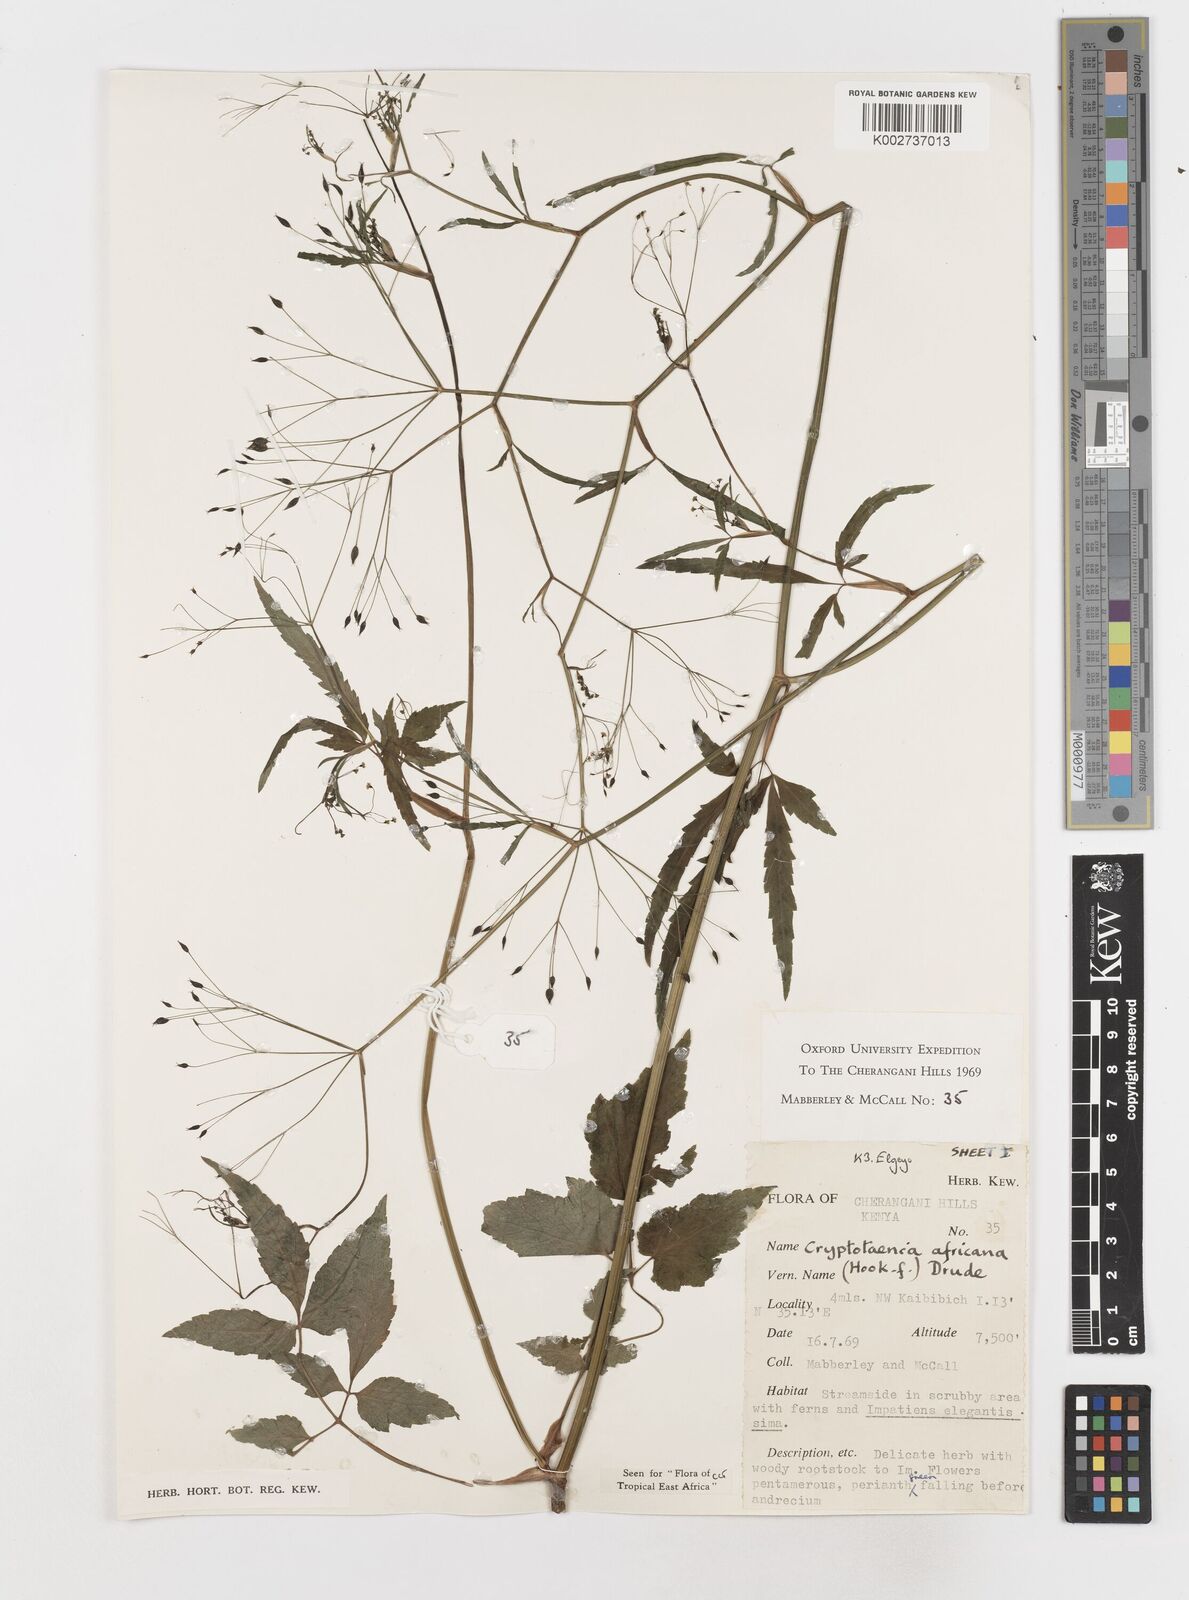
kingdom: Plantae
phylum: Tracheophyta
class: Magnoliopsida
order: Apiales
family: Apiaceae
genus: Cryptotaenia
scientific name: Cryptotaenia africana
